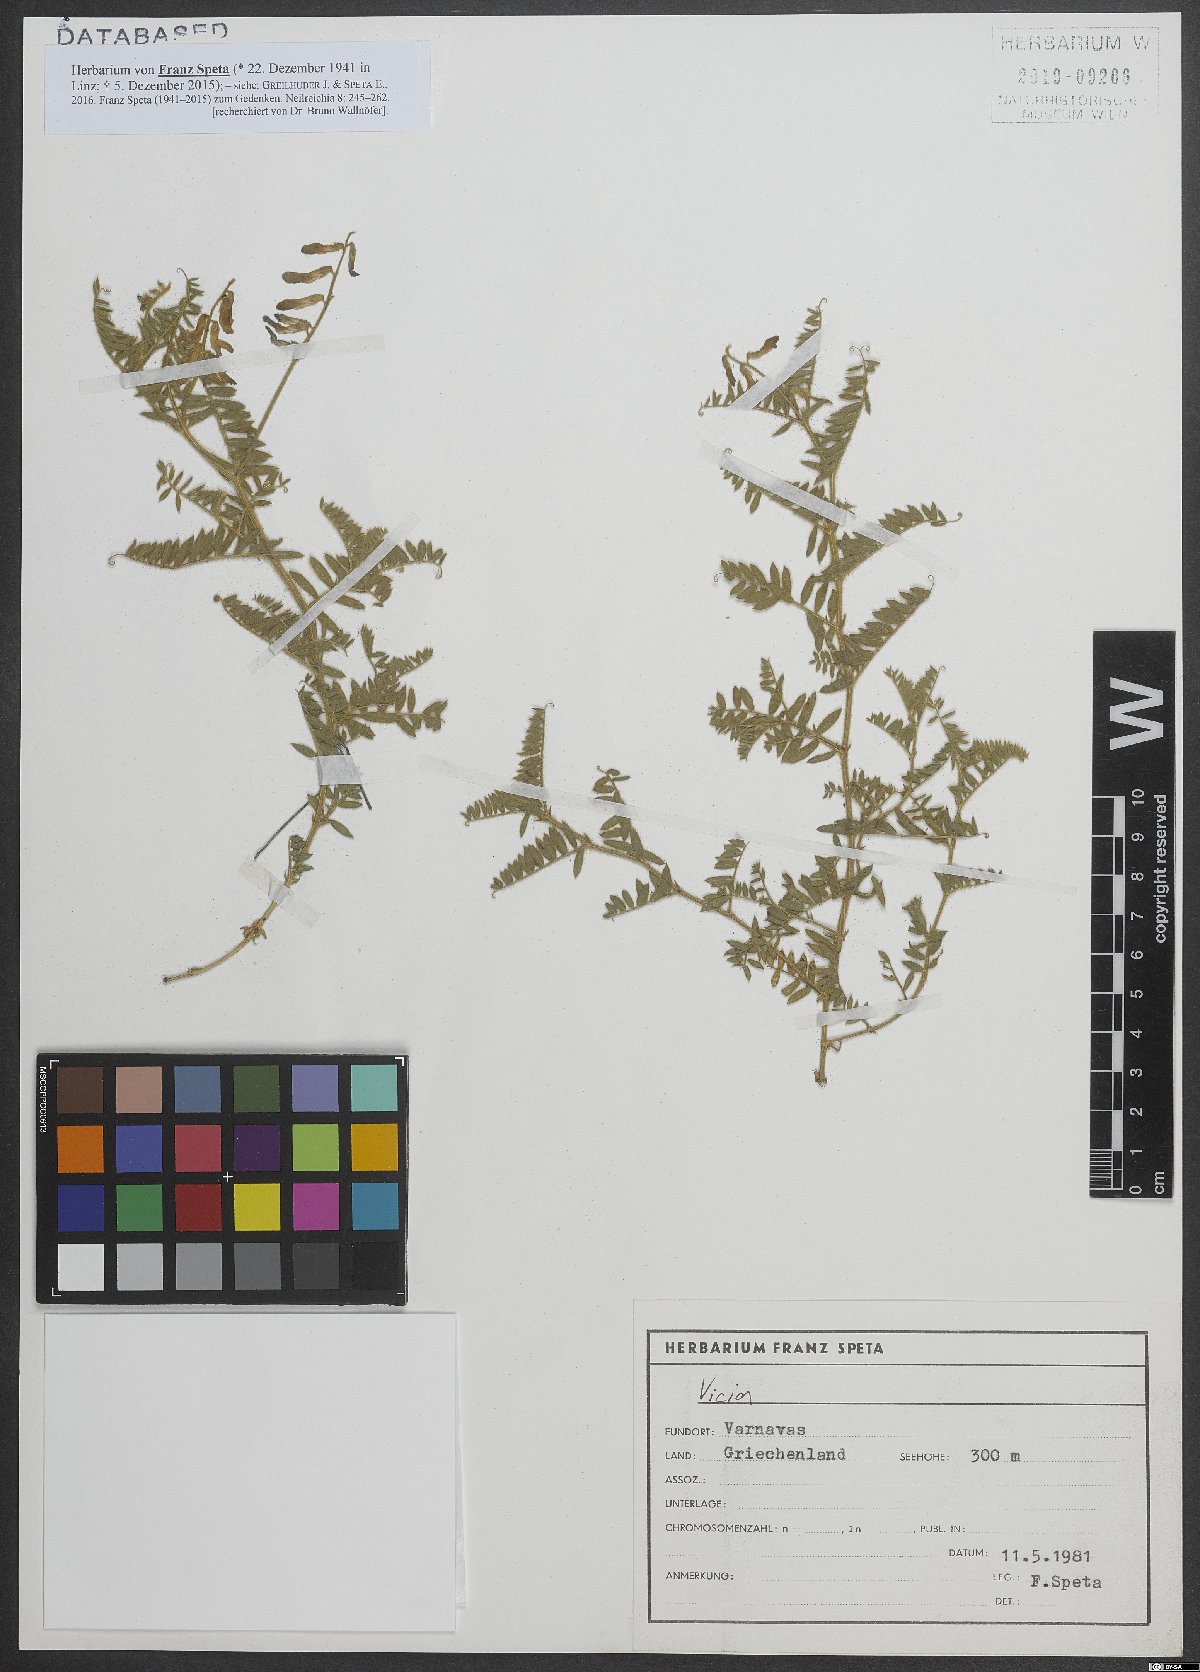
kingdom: Plantae
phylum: Tracheophyta
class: Magnoliopsida
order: Fabales
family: Fabaceae
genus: Vicia
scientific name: Vicia
